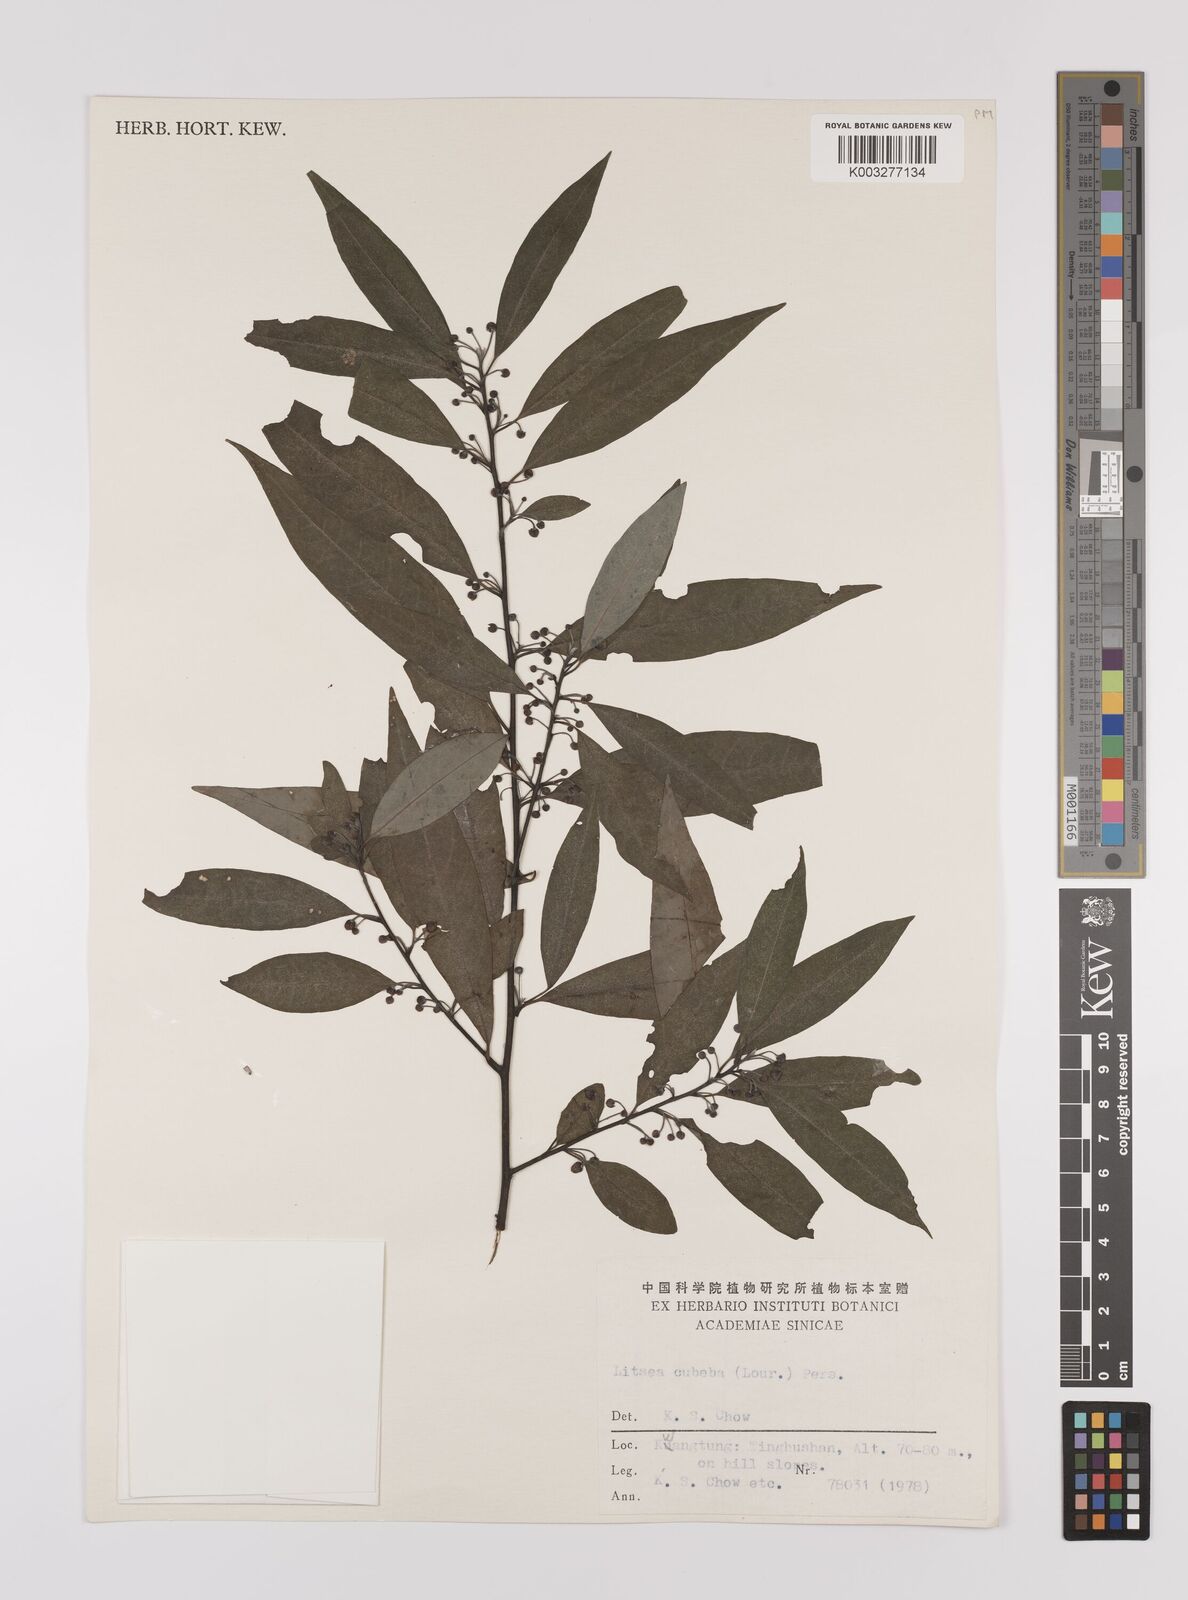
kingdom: Plantae
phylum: Tracheophyta
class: Magnoliopsida
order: Laurales
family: Lauraceae
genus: Litsea
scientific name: Litsea cubeba
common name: Mountain-pepper
